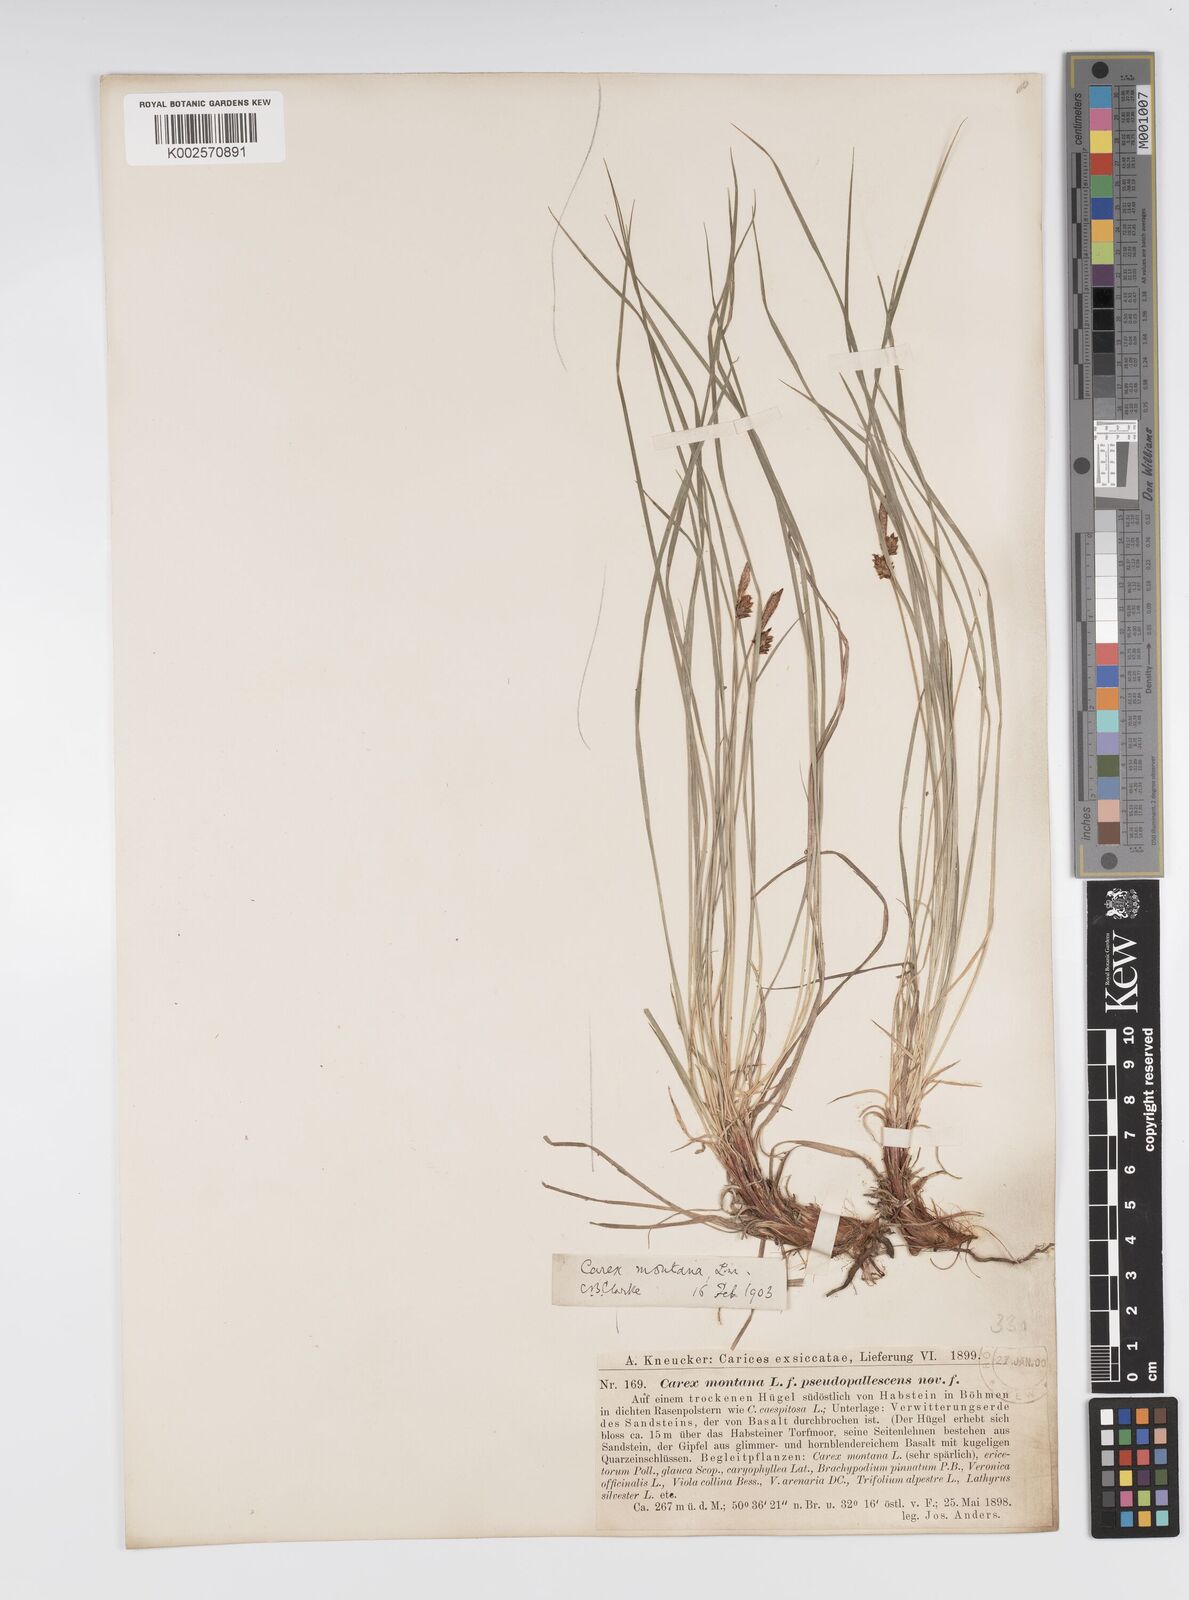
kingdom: Plantae
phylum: Tracheophyta
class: Liliopsida
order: Poales
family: Cyperaceae
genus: Carex
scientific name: Carex montana
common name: Soft-leaved sedge
